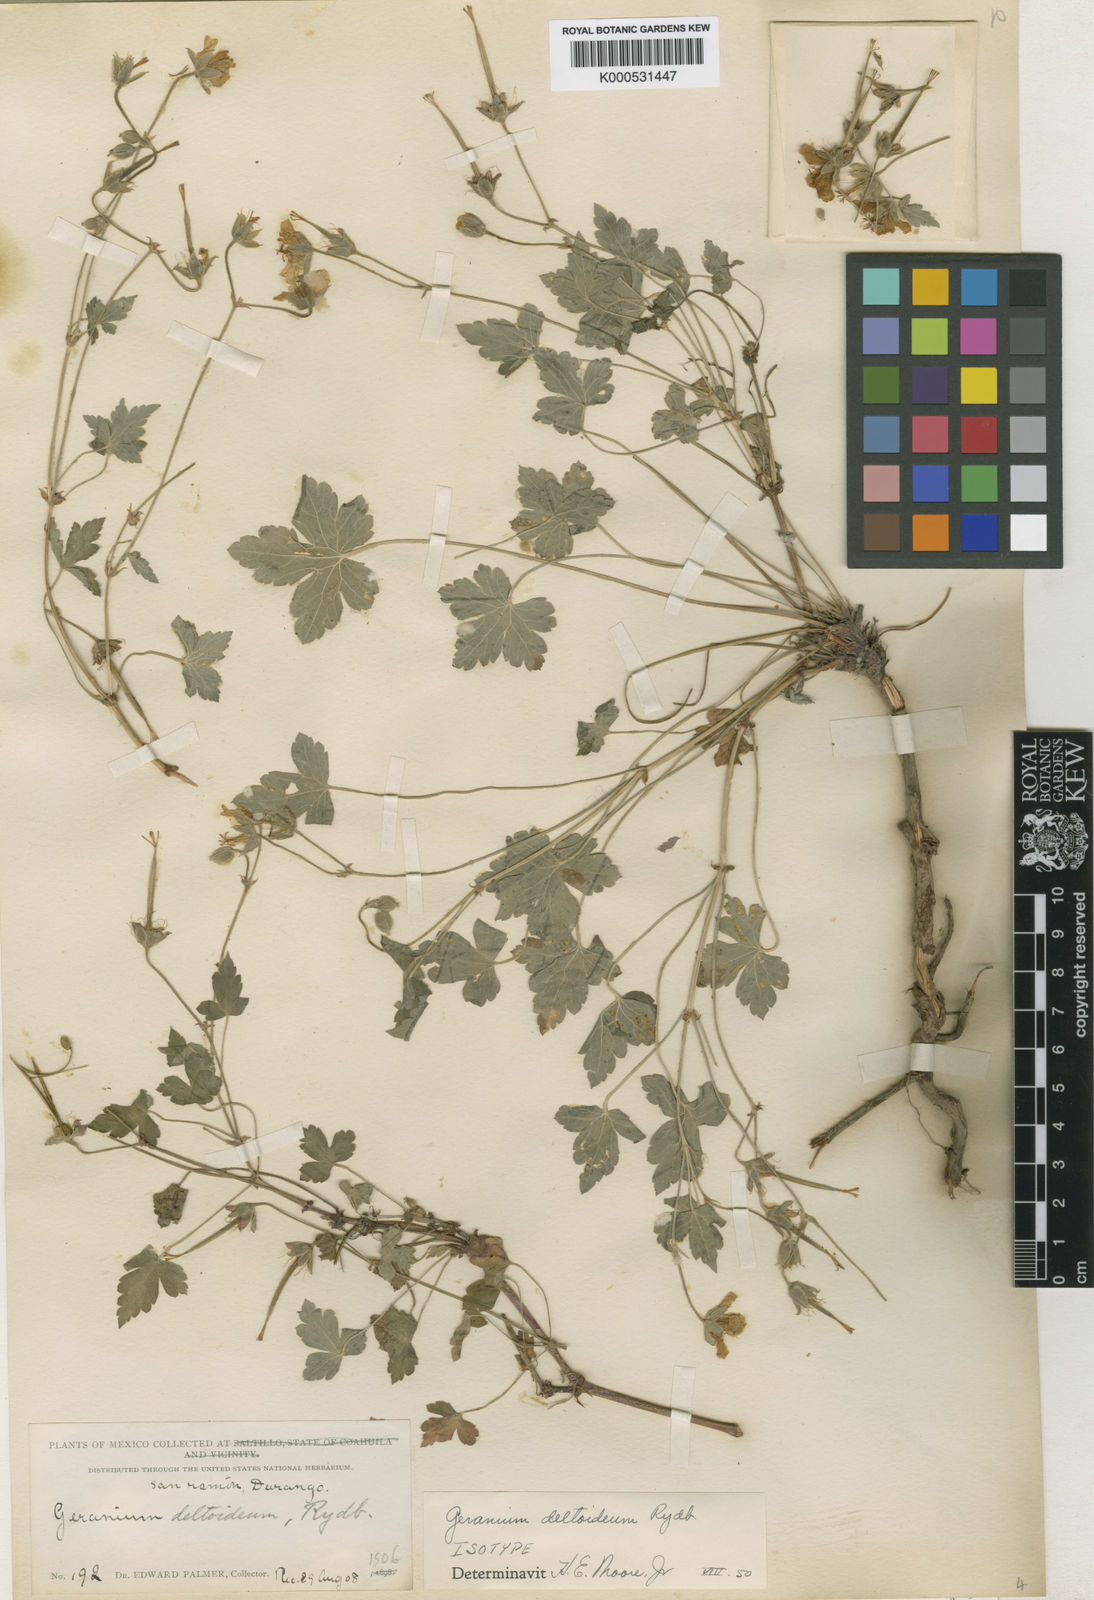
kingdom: Plantae
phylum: Tracheophyta
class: Magnoliopsida
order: Geraniales
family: Geraniaceae
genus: Geranium
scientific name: Geranium deltoideum
